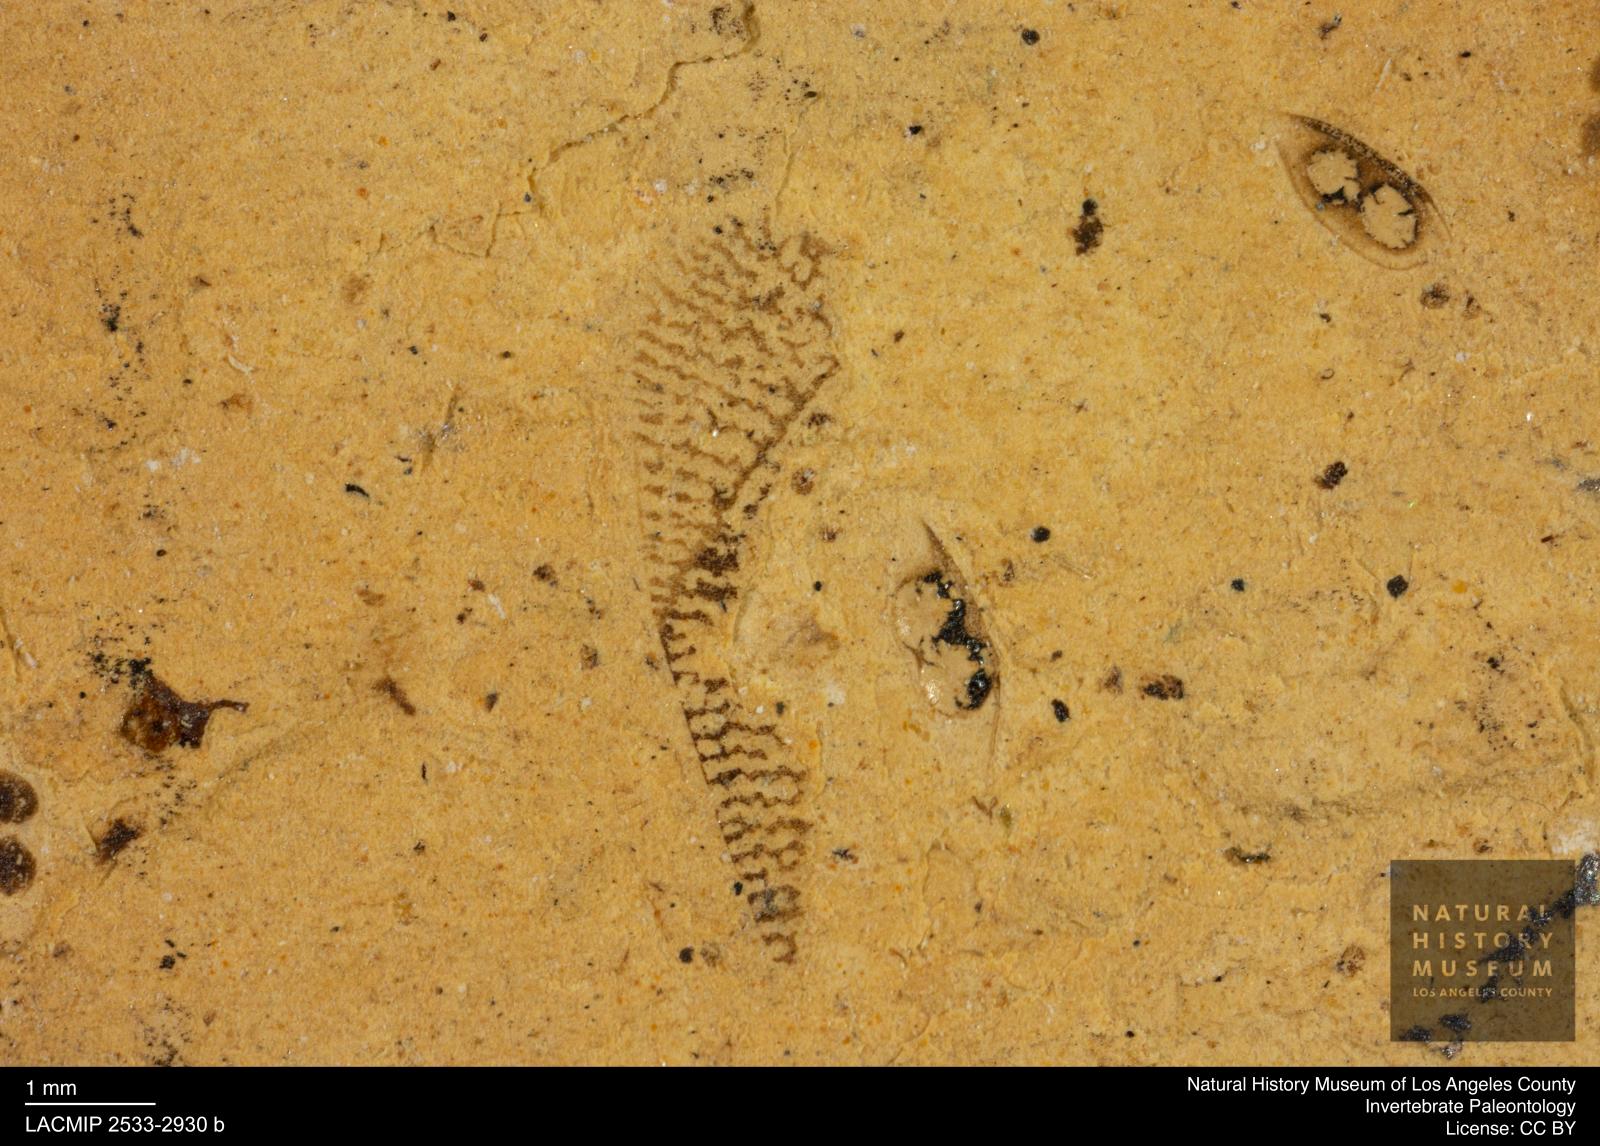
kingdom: Animalia
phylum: Arthropoda
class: Insecta
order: Hemiptera
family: Corixidae
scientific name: Corixidae
